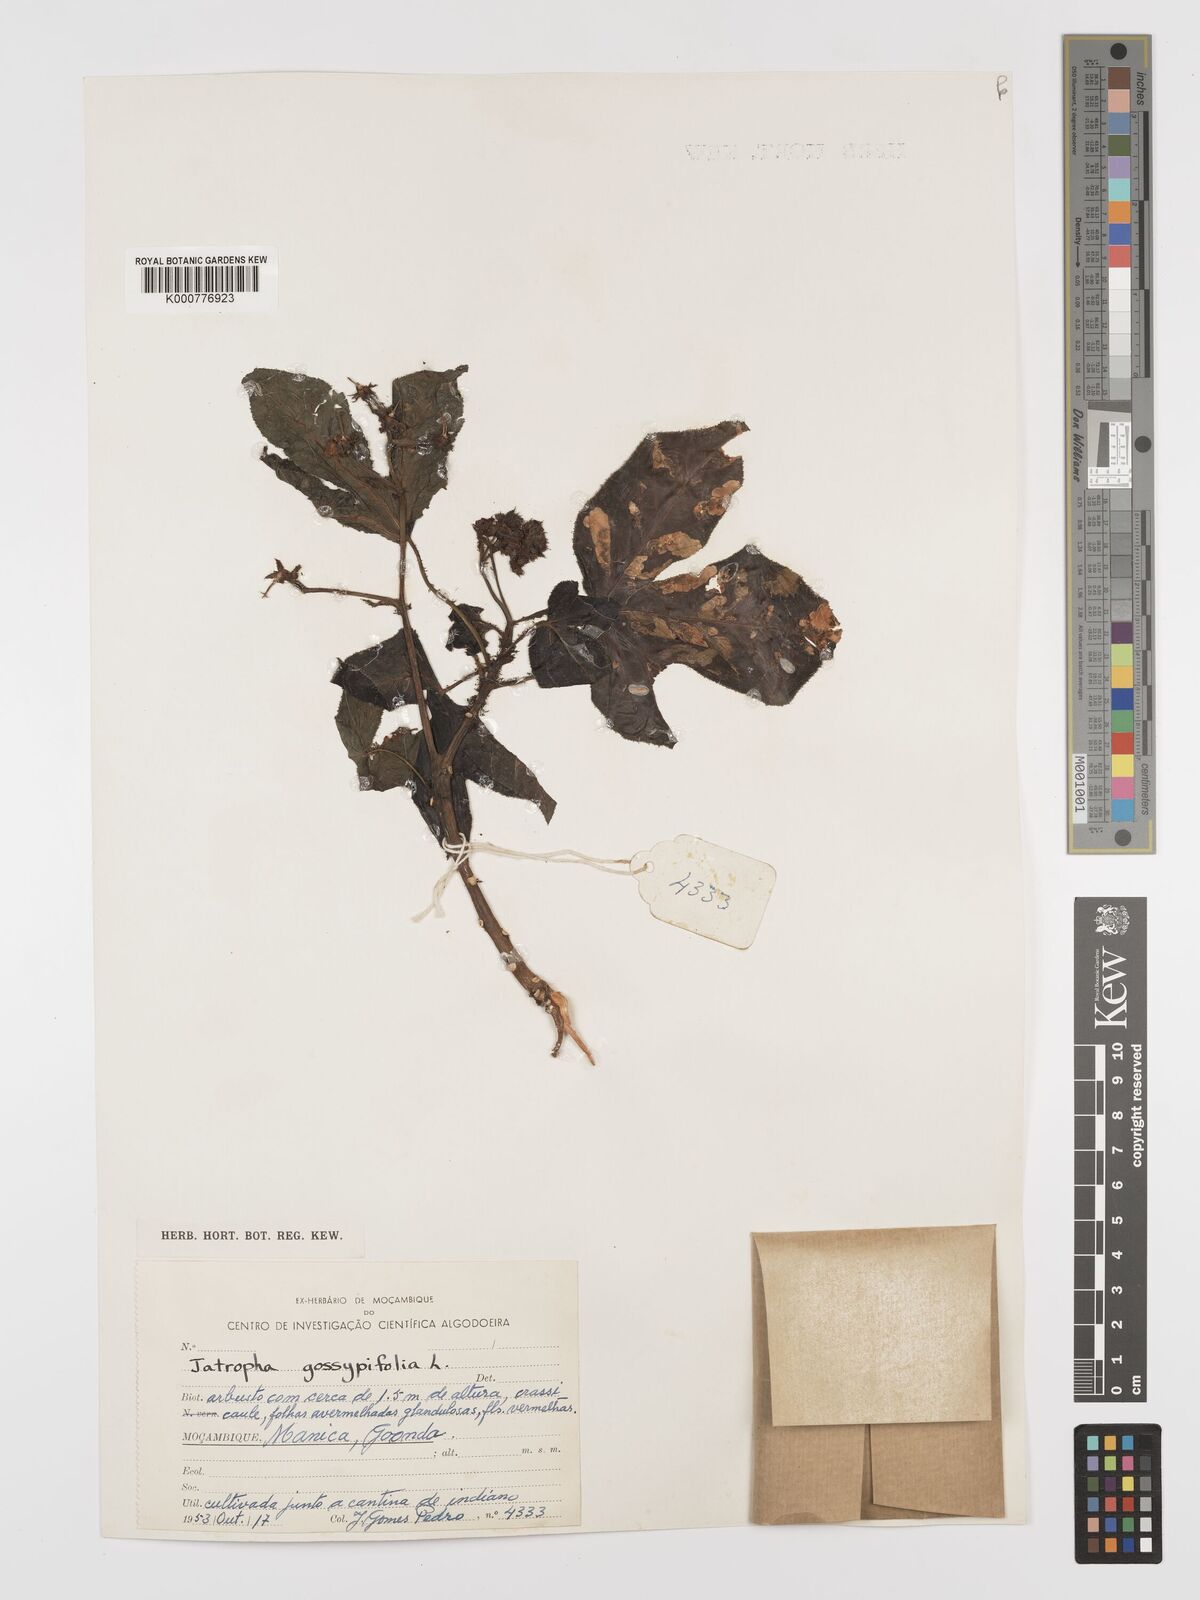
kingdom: Plantae
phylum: Tracheophyta
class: Magnoliopsida
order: Malpighiales
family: Euphorbiaceae
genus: Jatropha
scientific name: Jatropha gossypiifolia
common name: Bellyache bush
